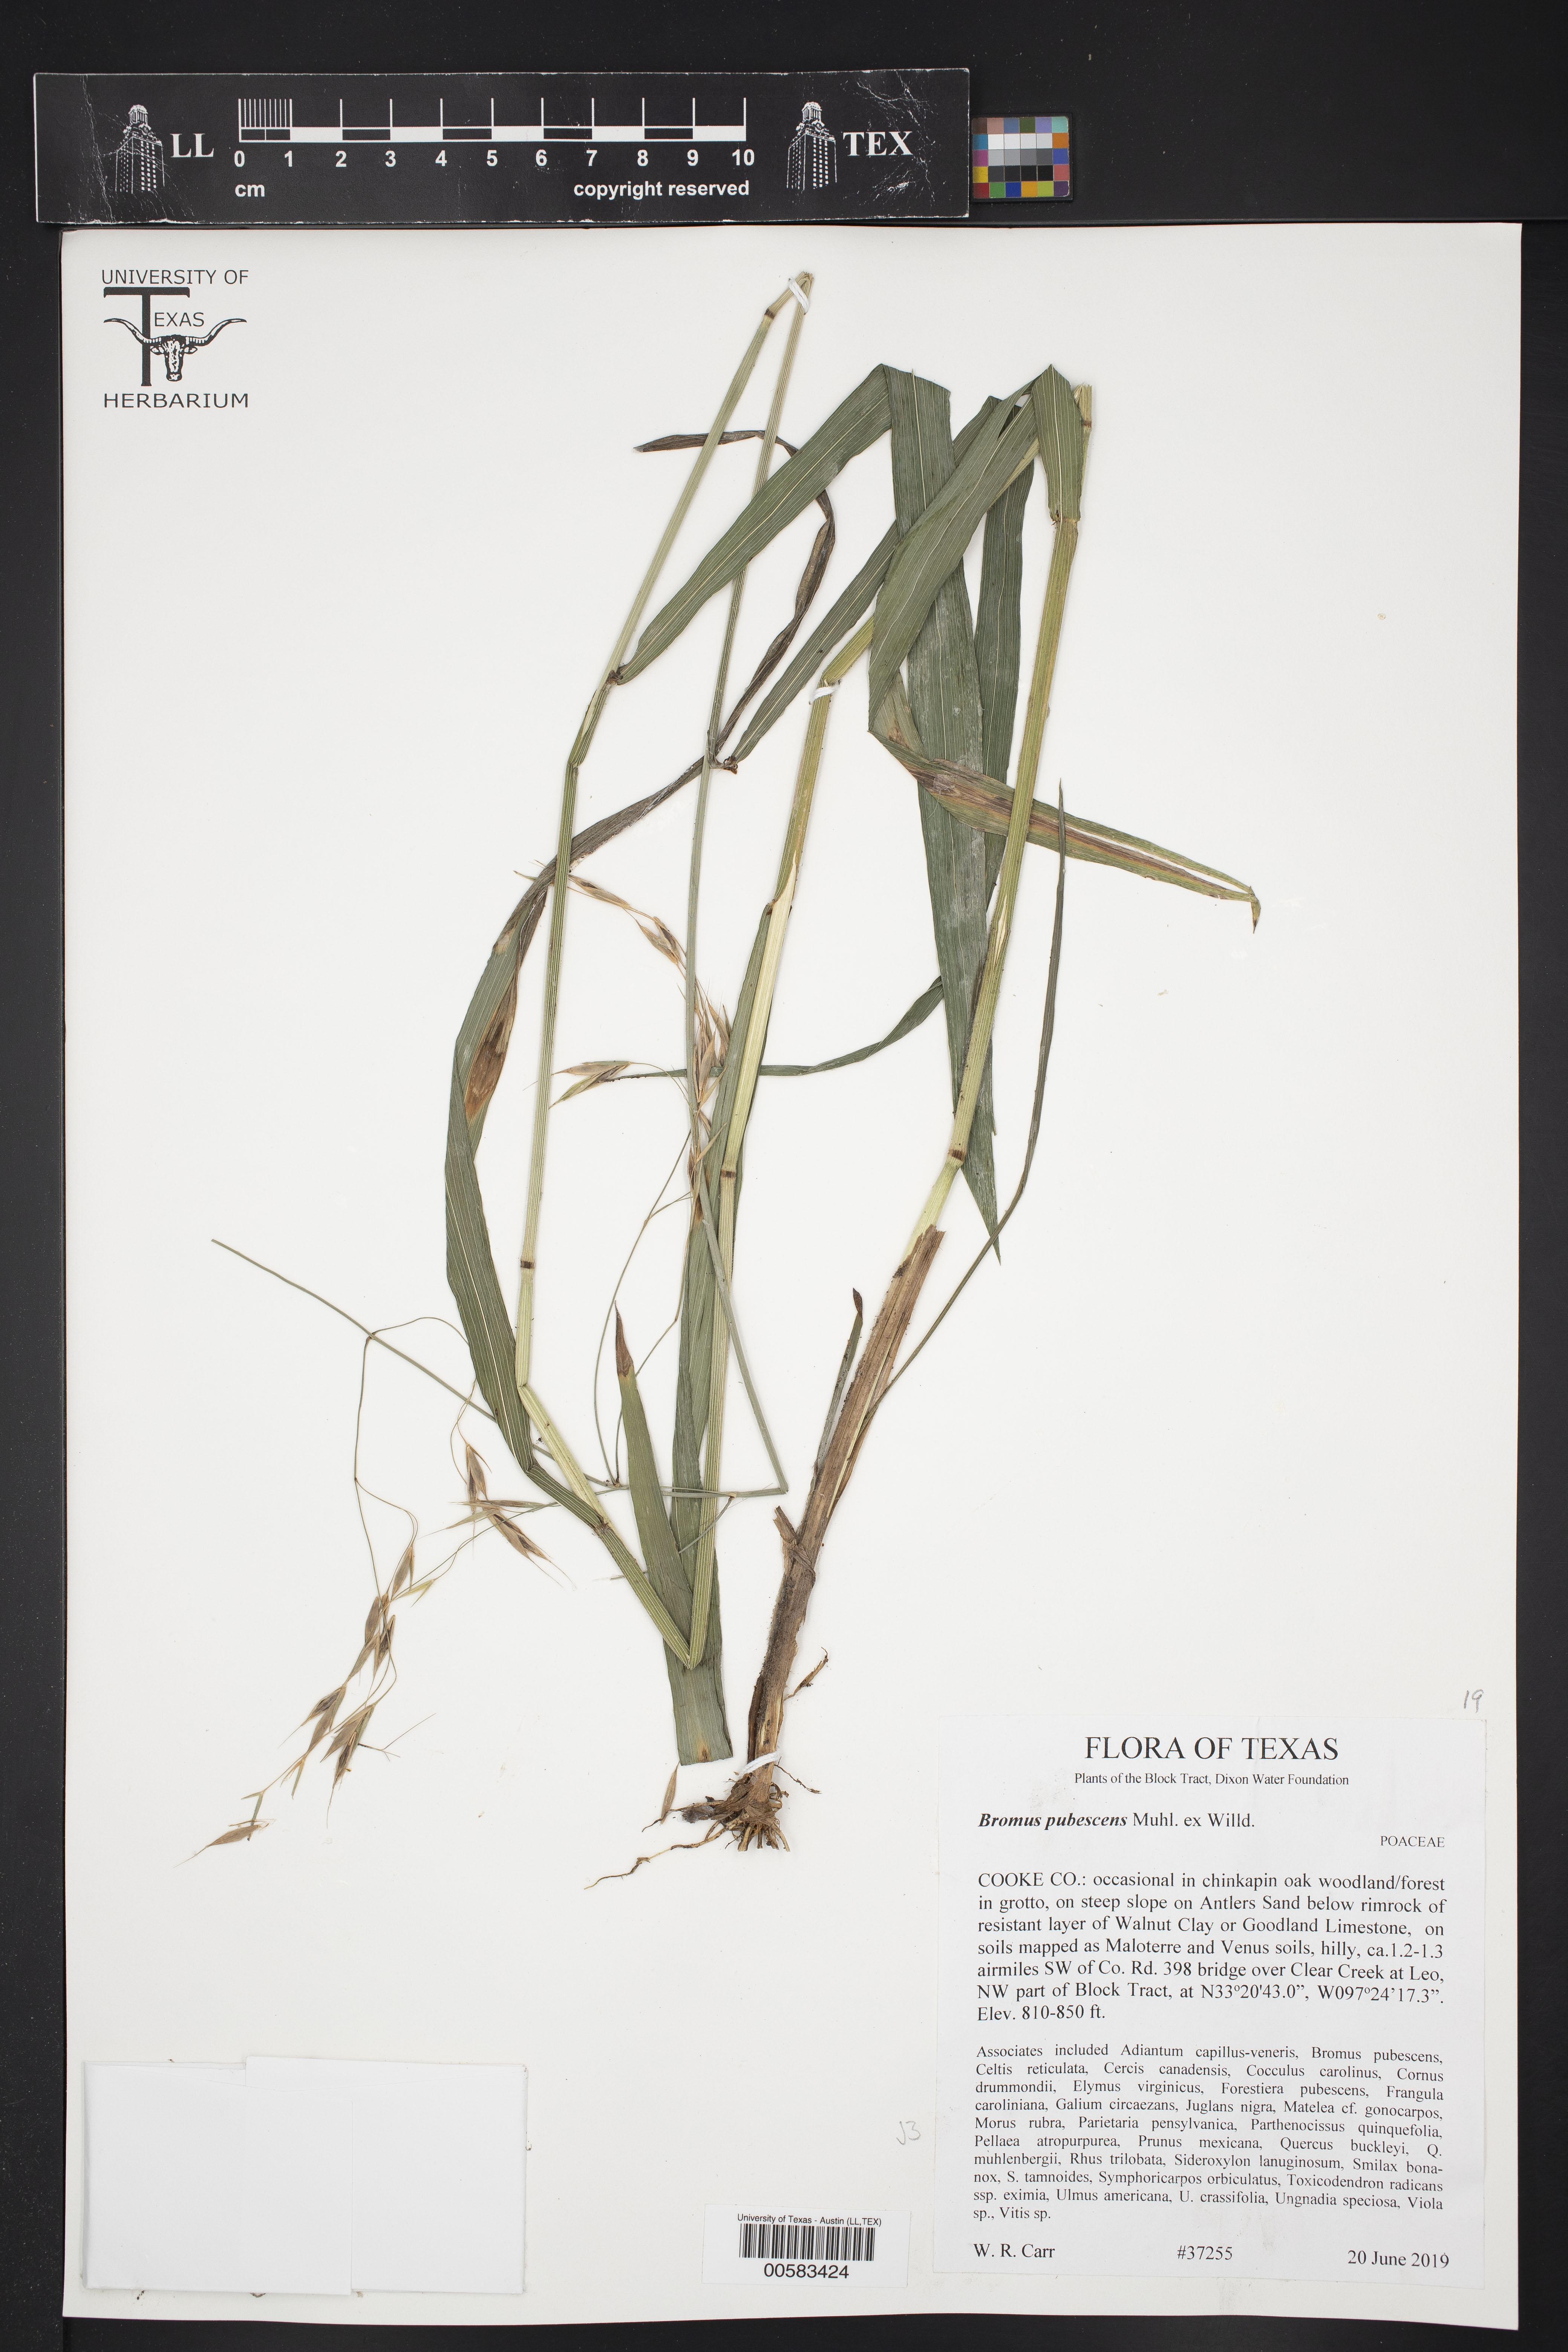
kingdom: Plantae
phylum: Tracheophyta
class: Liliopsida
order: Poales
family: Poaceae
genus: Bromus
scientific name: Bromus pubescens
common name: Hairy wood brome grass
